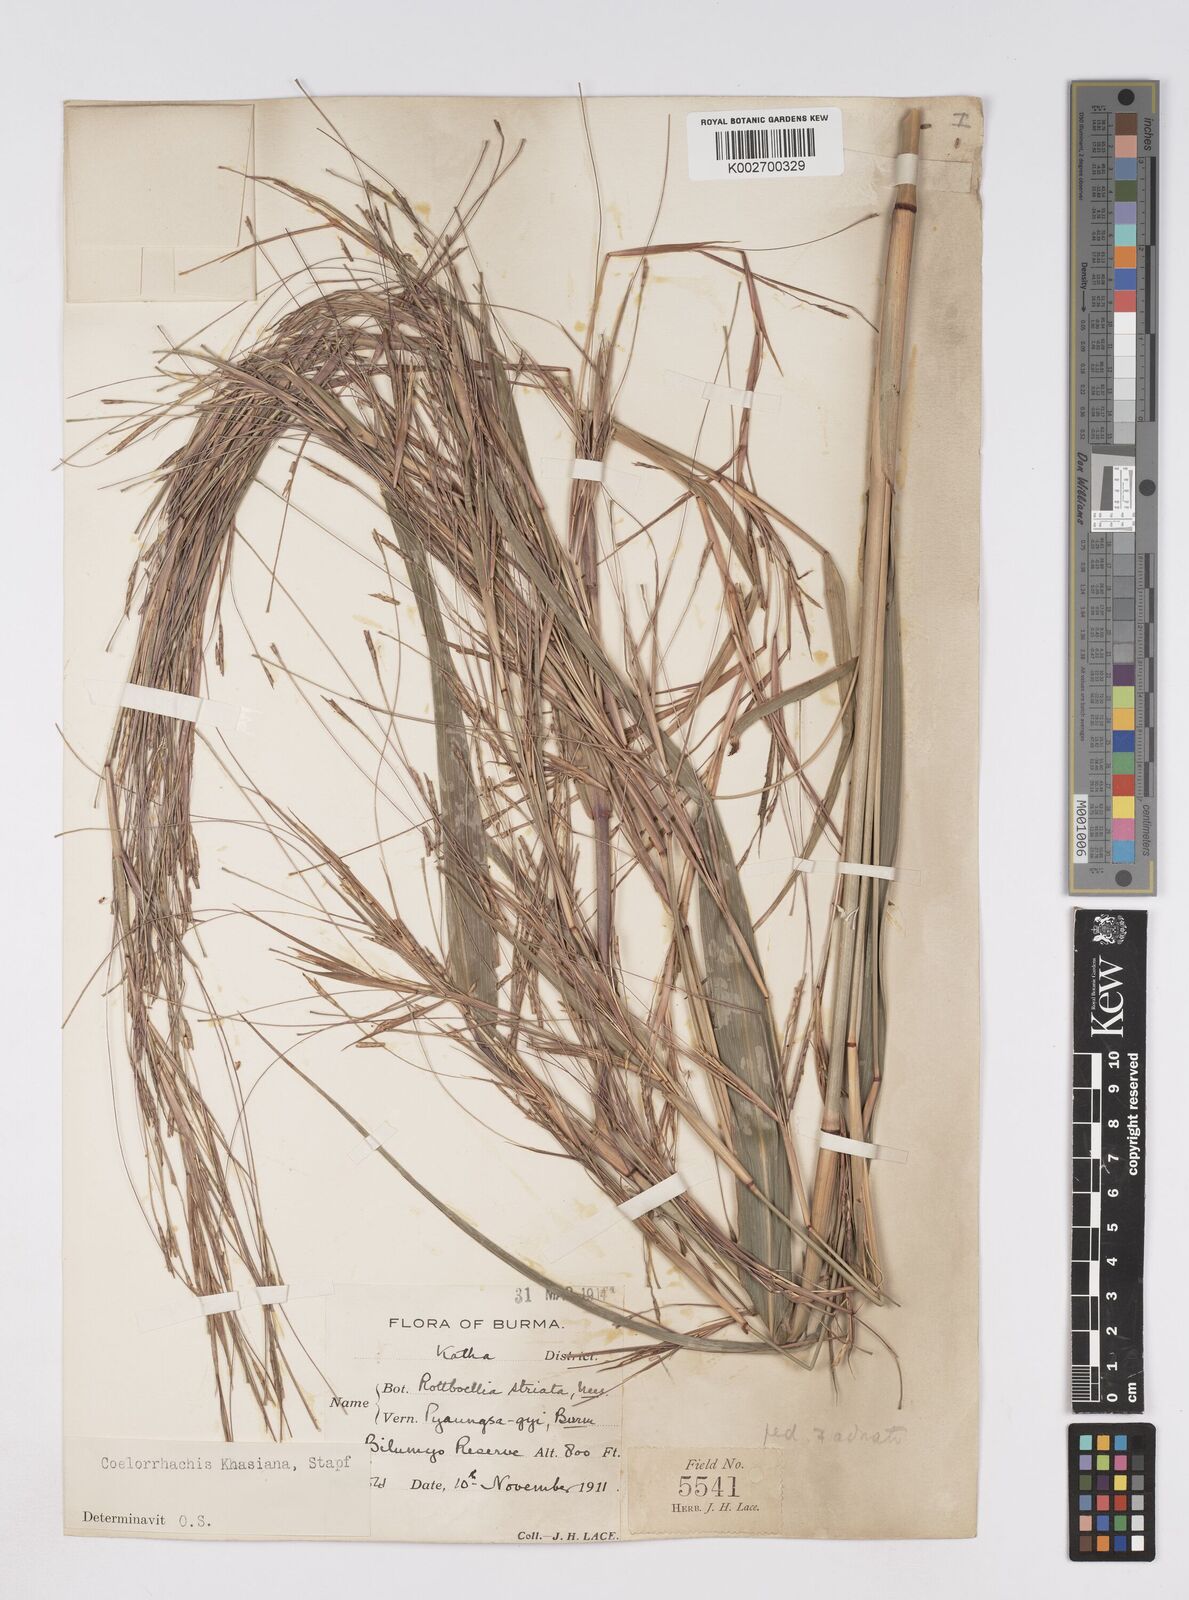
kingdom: Plantae
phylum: Tracheophyta
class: Liliopsida
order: Poales
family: Poaceae
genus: Rottboellia
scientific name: Rottboellia striata
